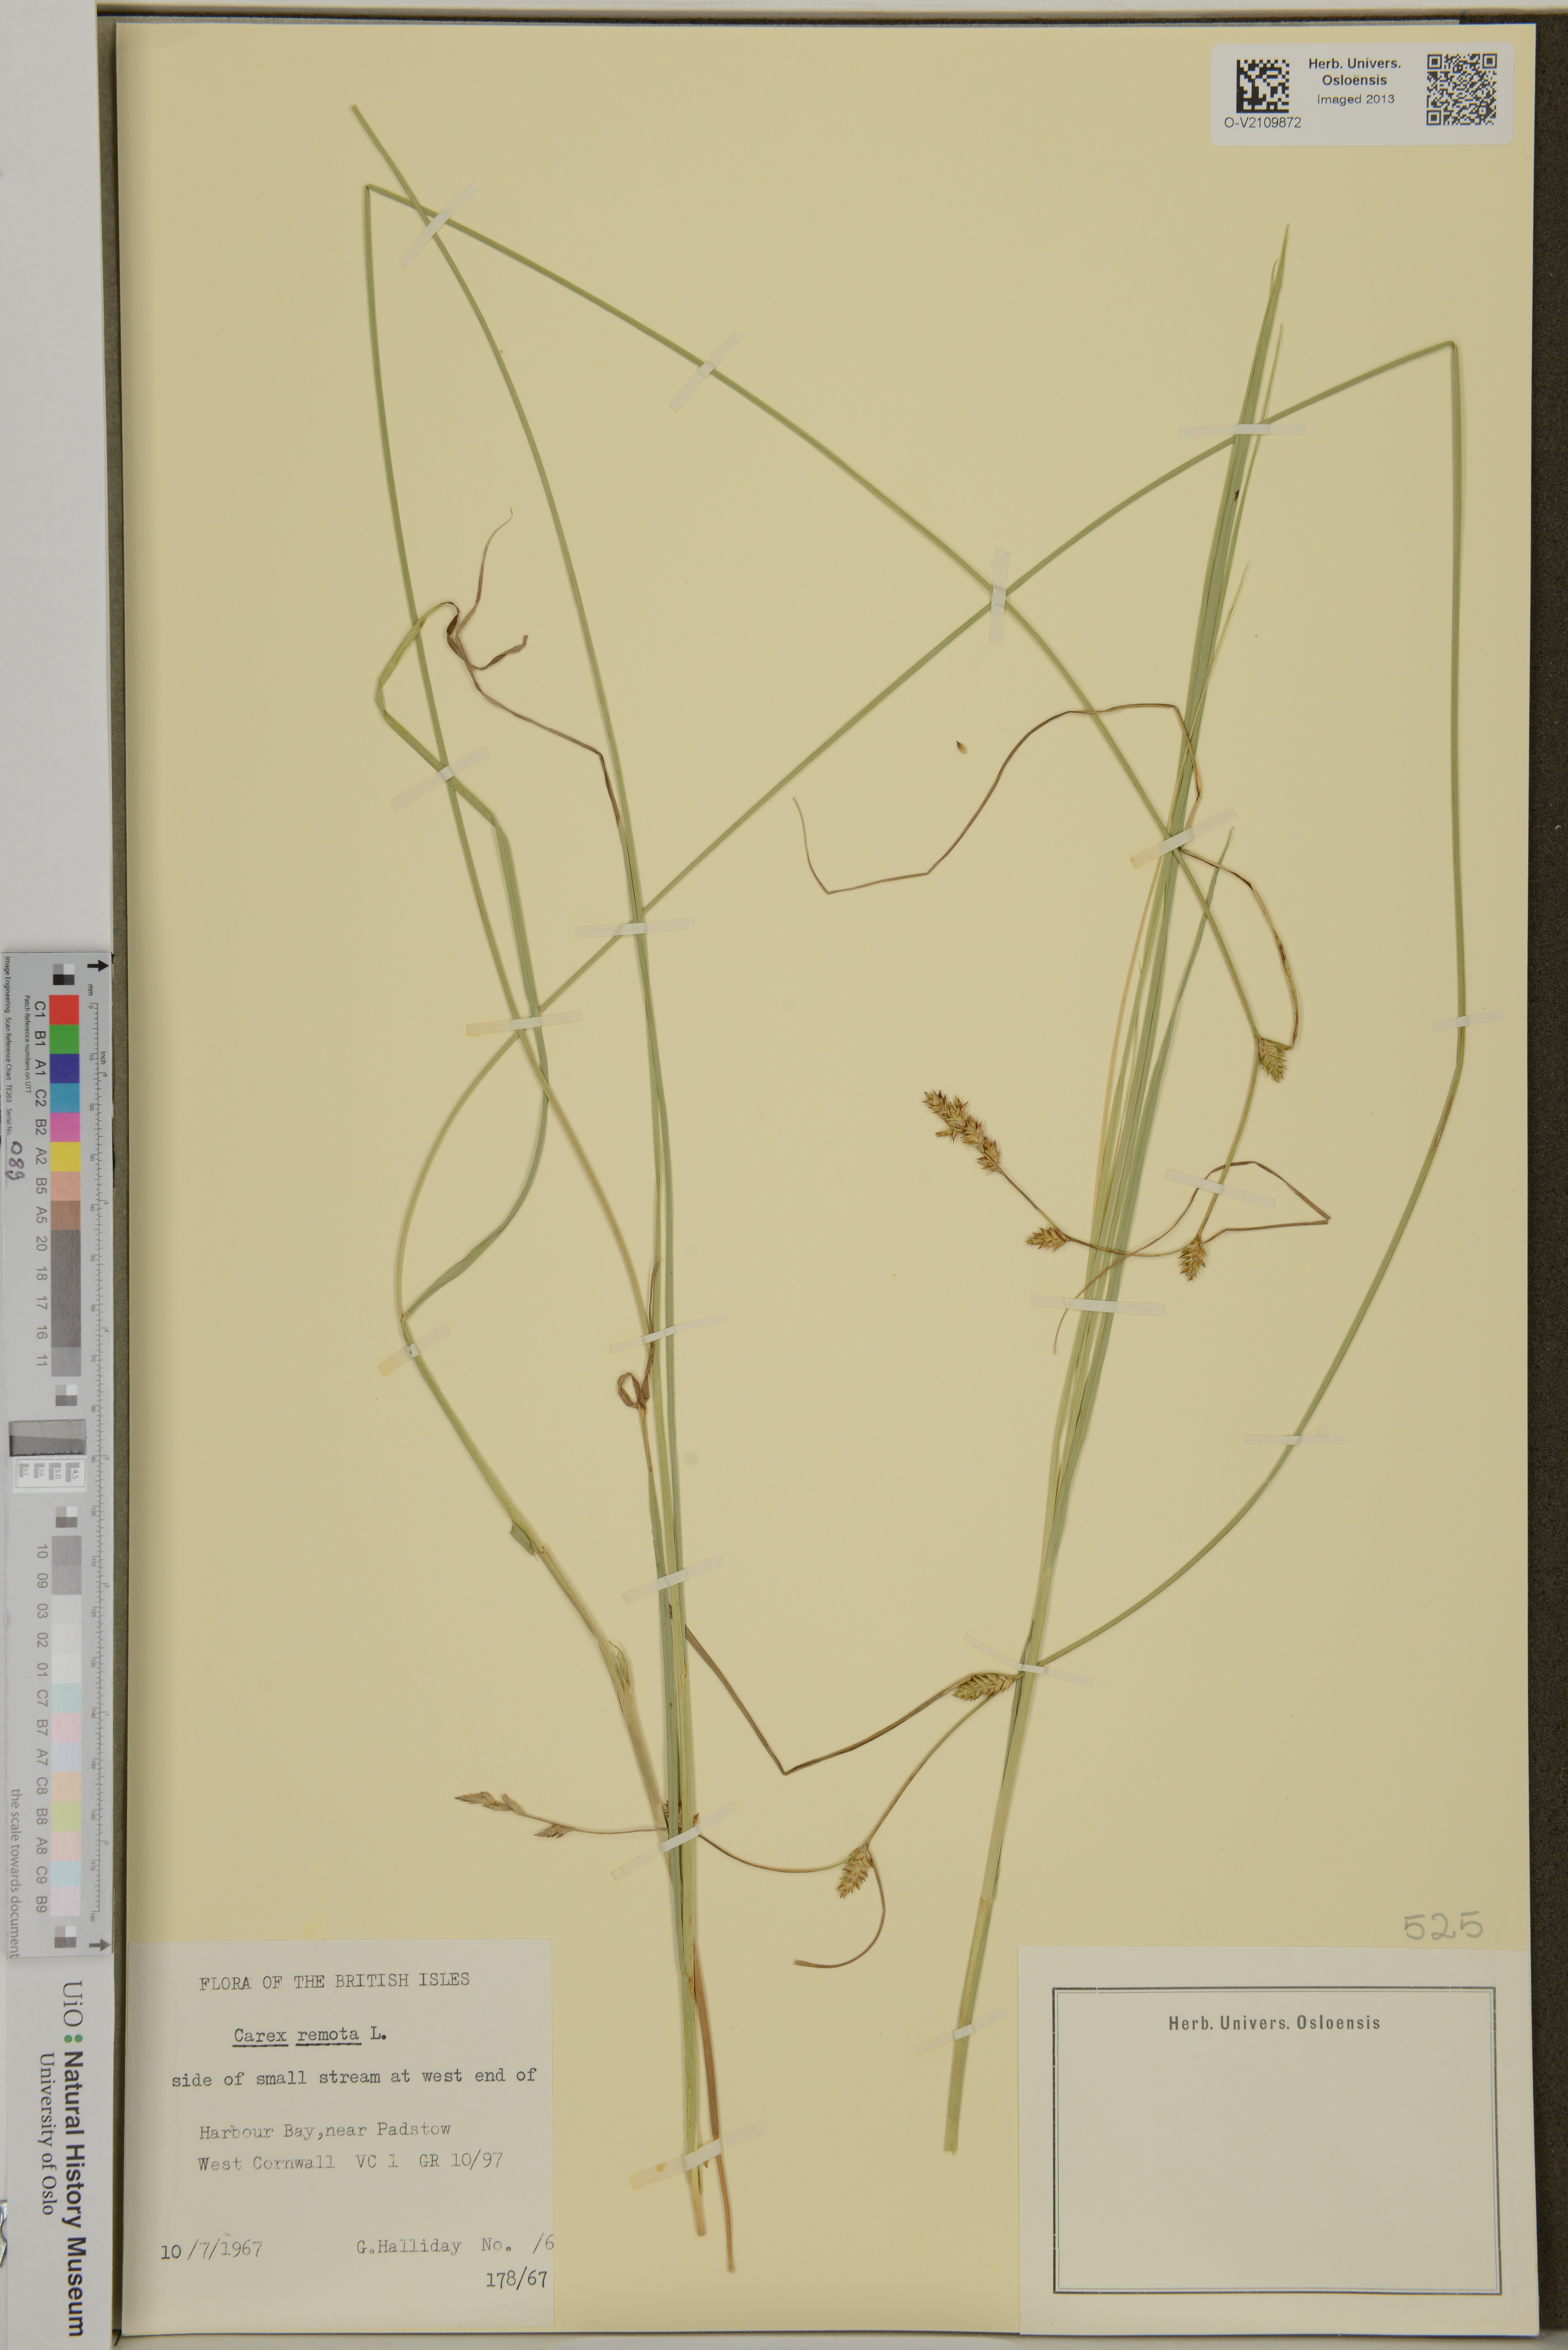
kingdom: Plantae
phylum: Tracheophyta
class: Liliopsida
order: Poales
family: Cyperaceae
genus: Carex
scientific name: Carex remota
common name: Remote sedge
